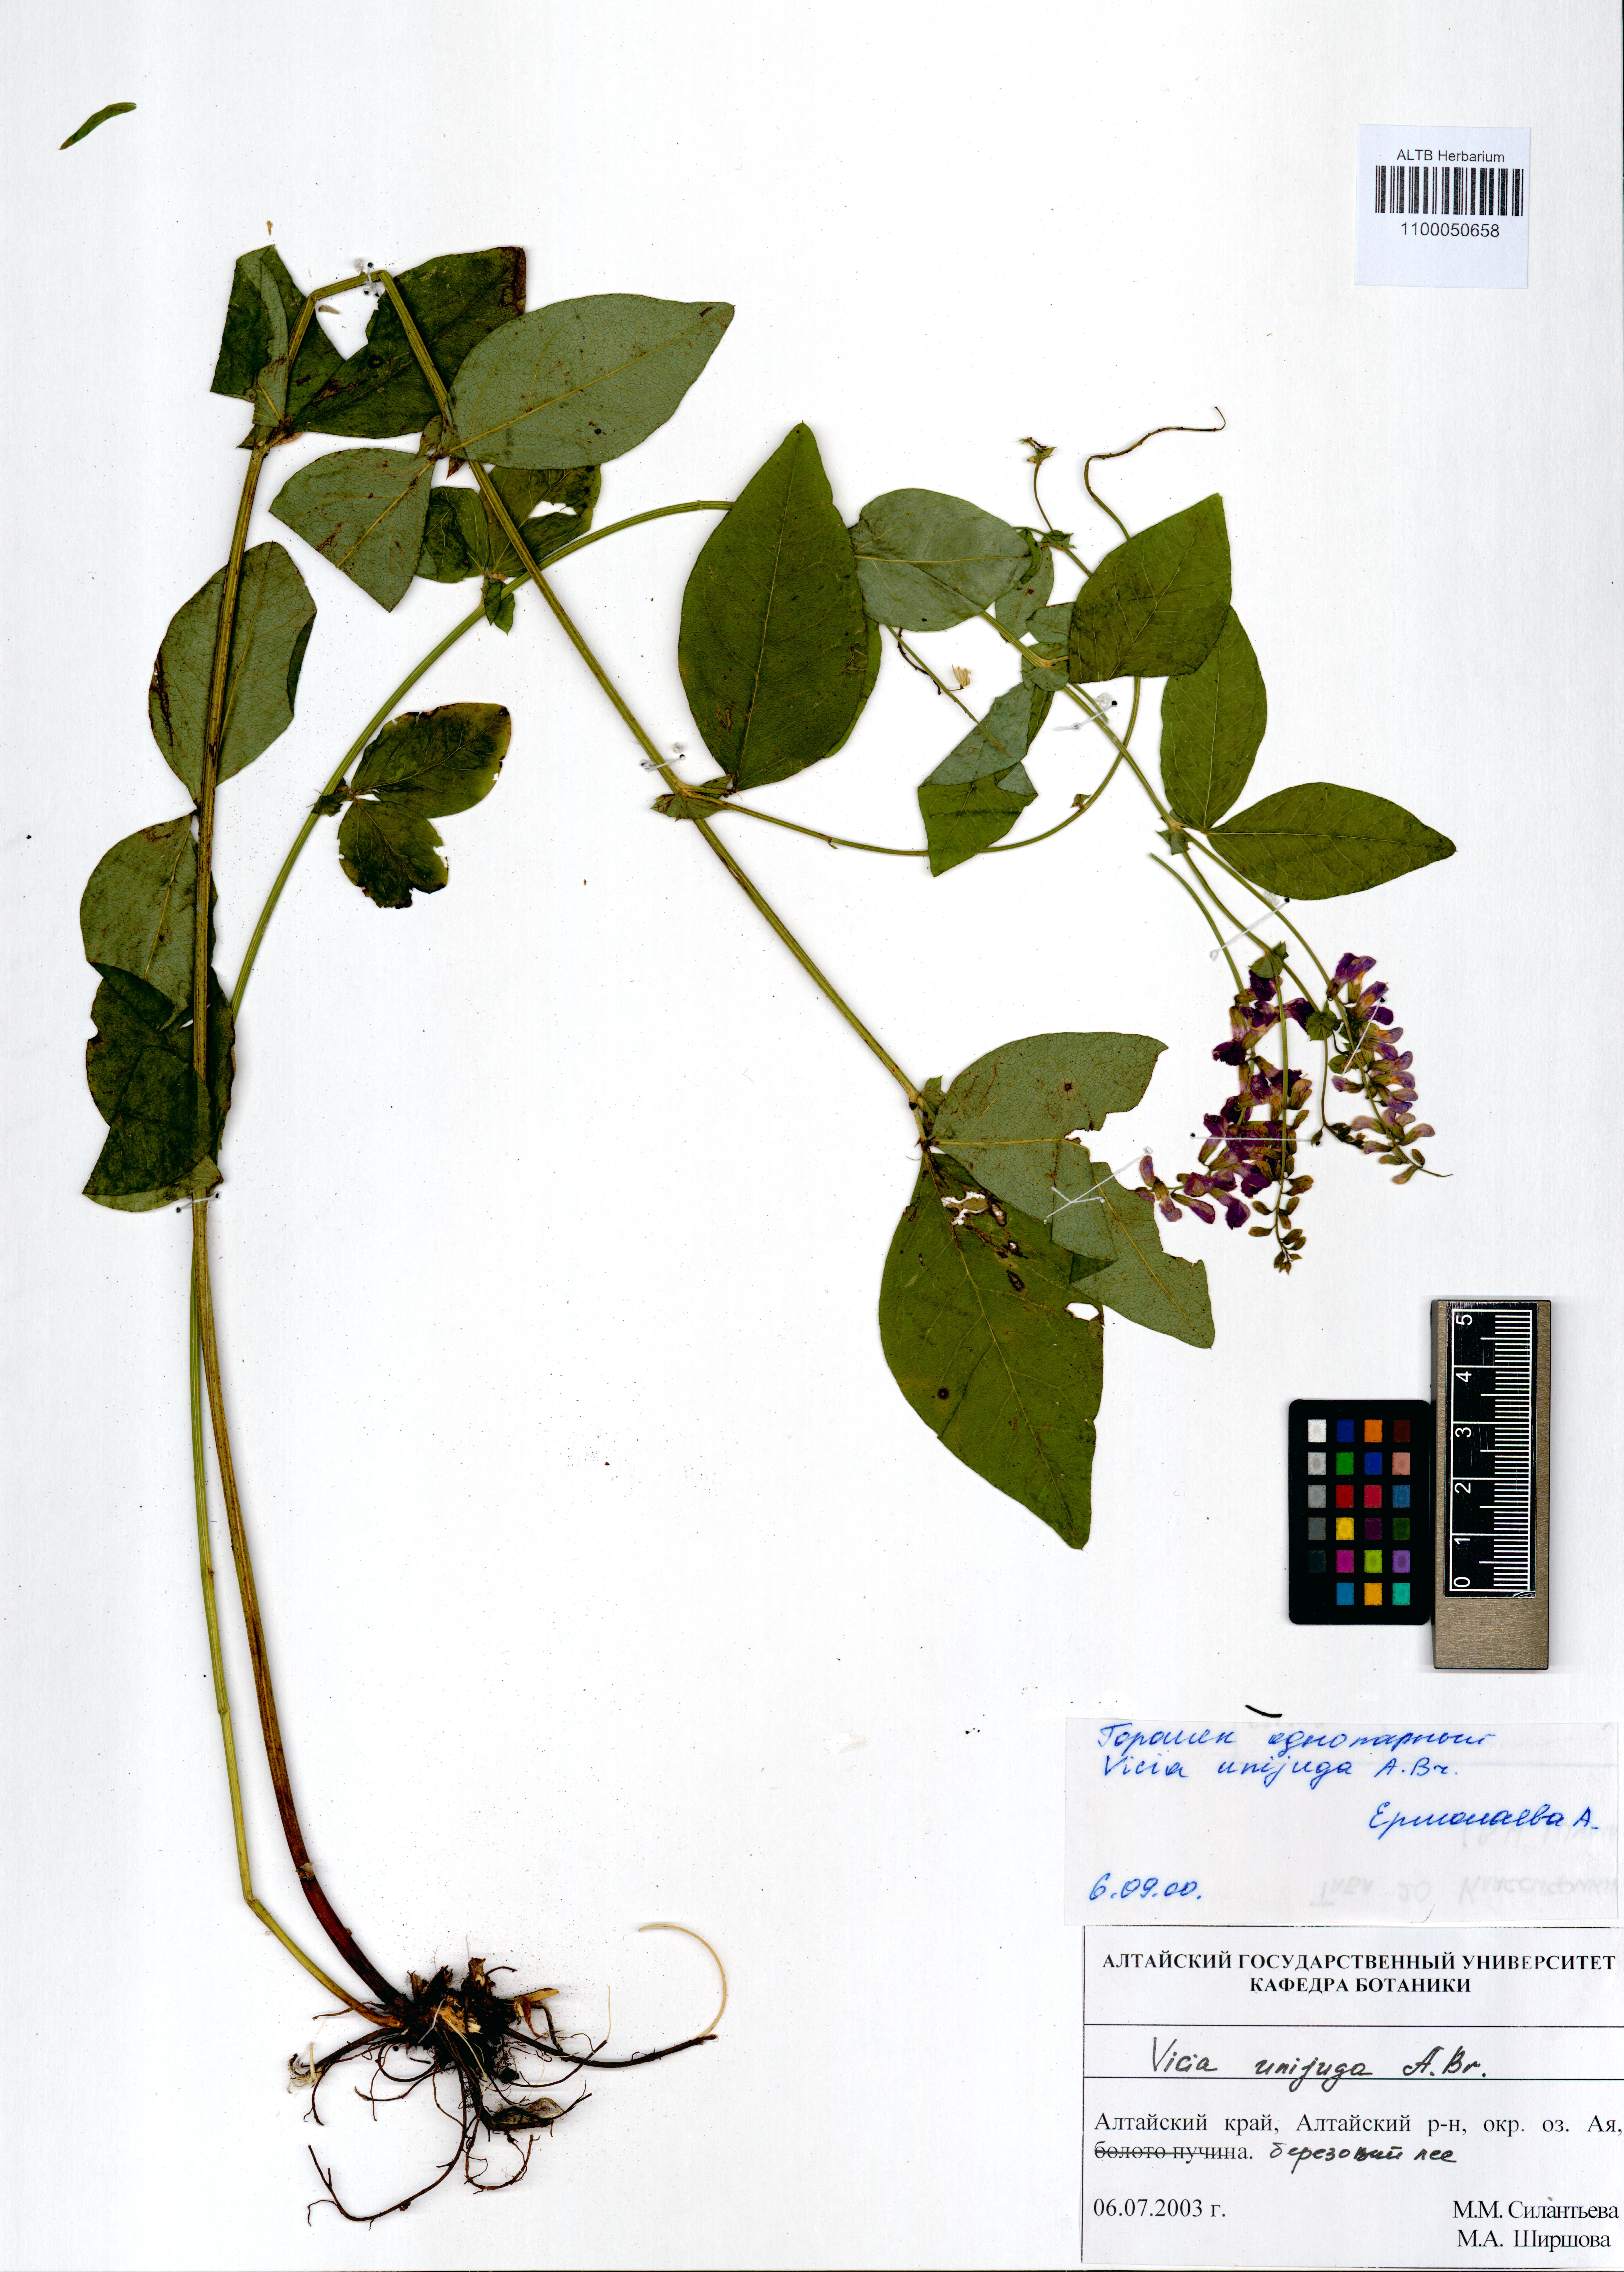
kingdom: Plantae
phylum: Tracheophyta
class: Magnoliopsida
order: Fabales
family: Fabaceae
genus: Vicia
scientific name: Vicia unijuga
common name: Two-leaf vetch
